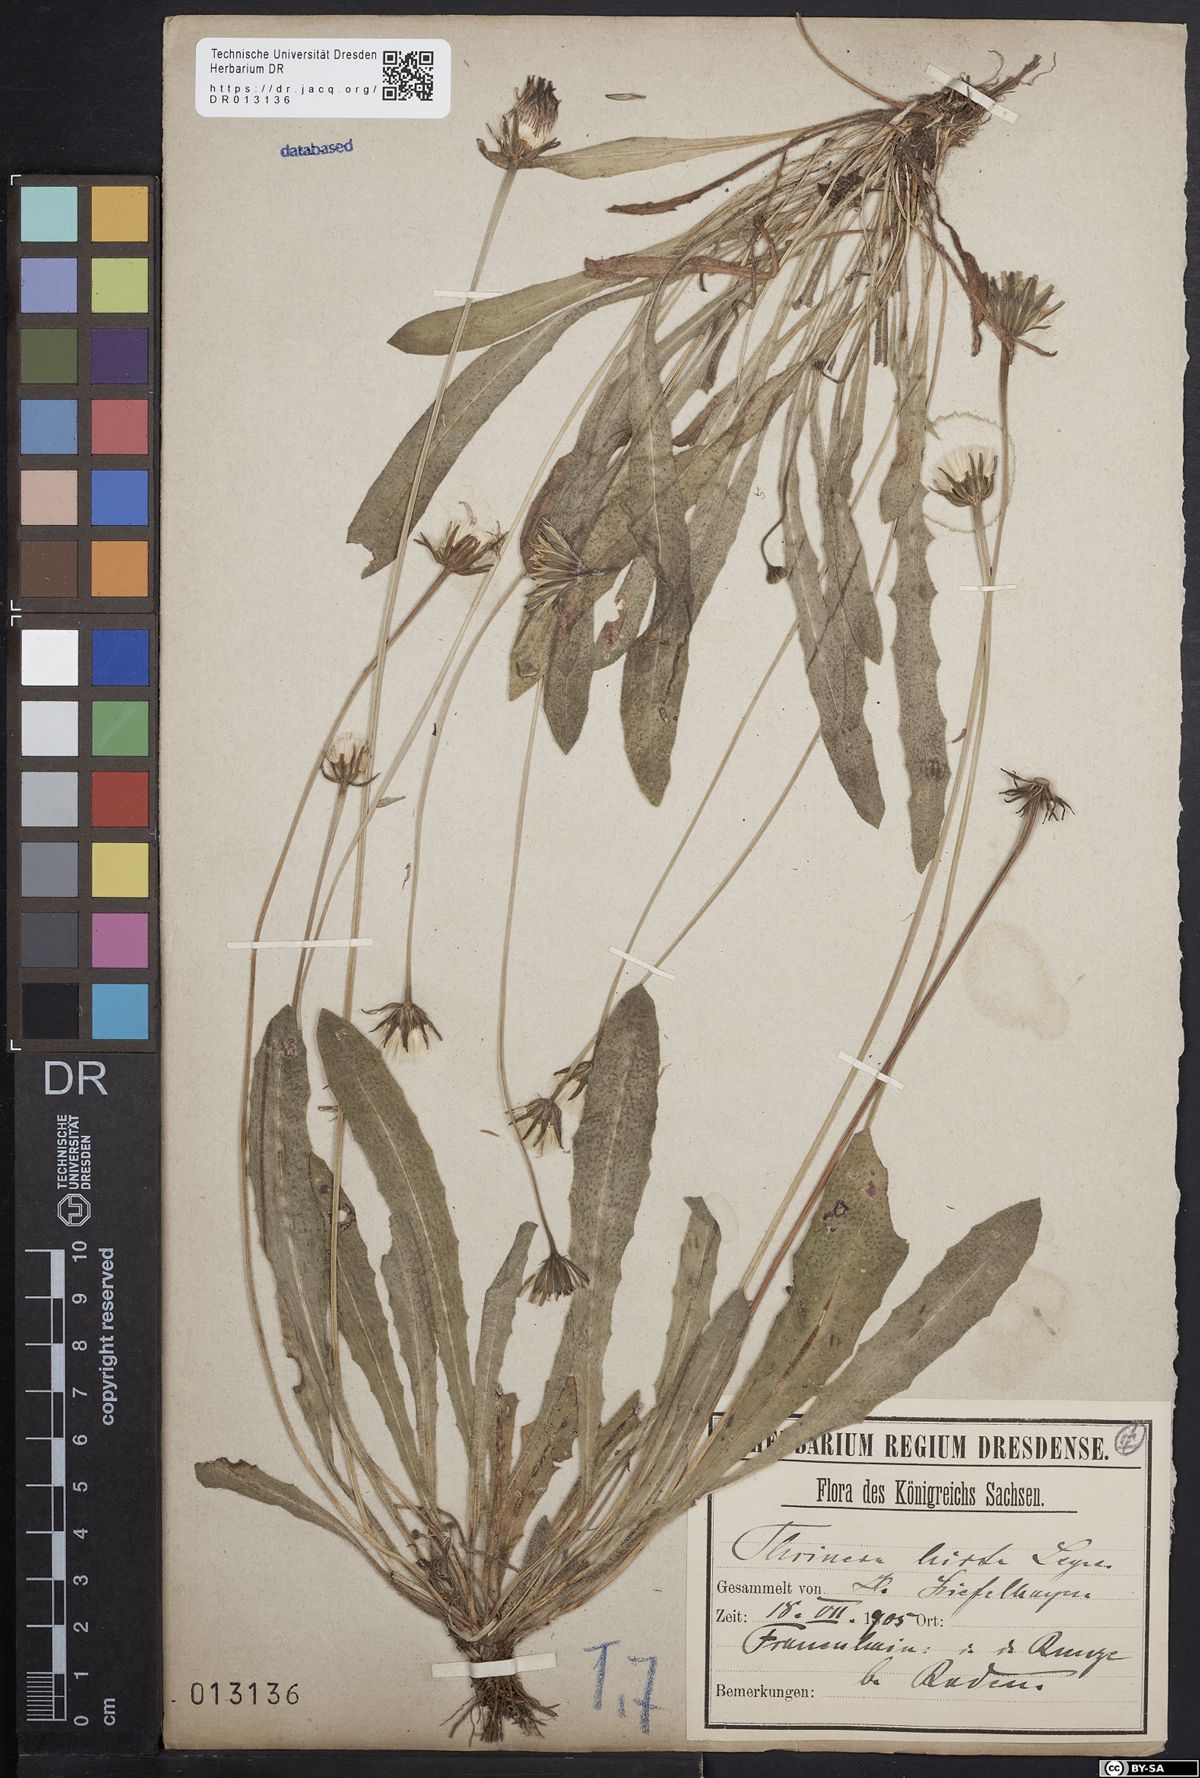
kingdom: Plantae
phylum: Tracheophyta
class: Magnoliopsida
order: Asterales
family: Asteraceae
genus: Thrincia
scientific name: Thrincia saxatilis
